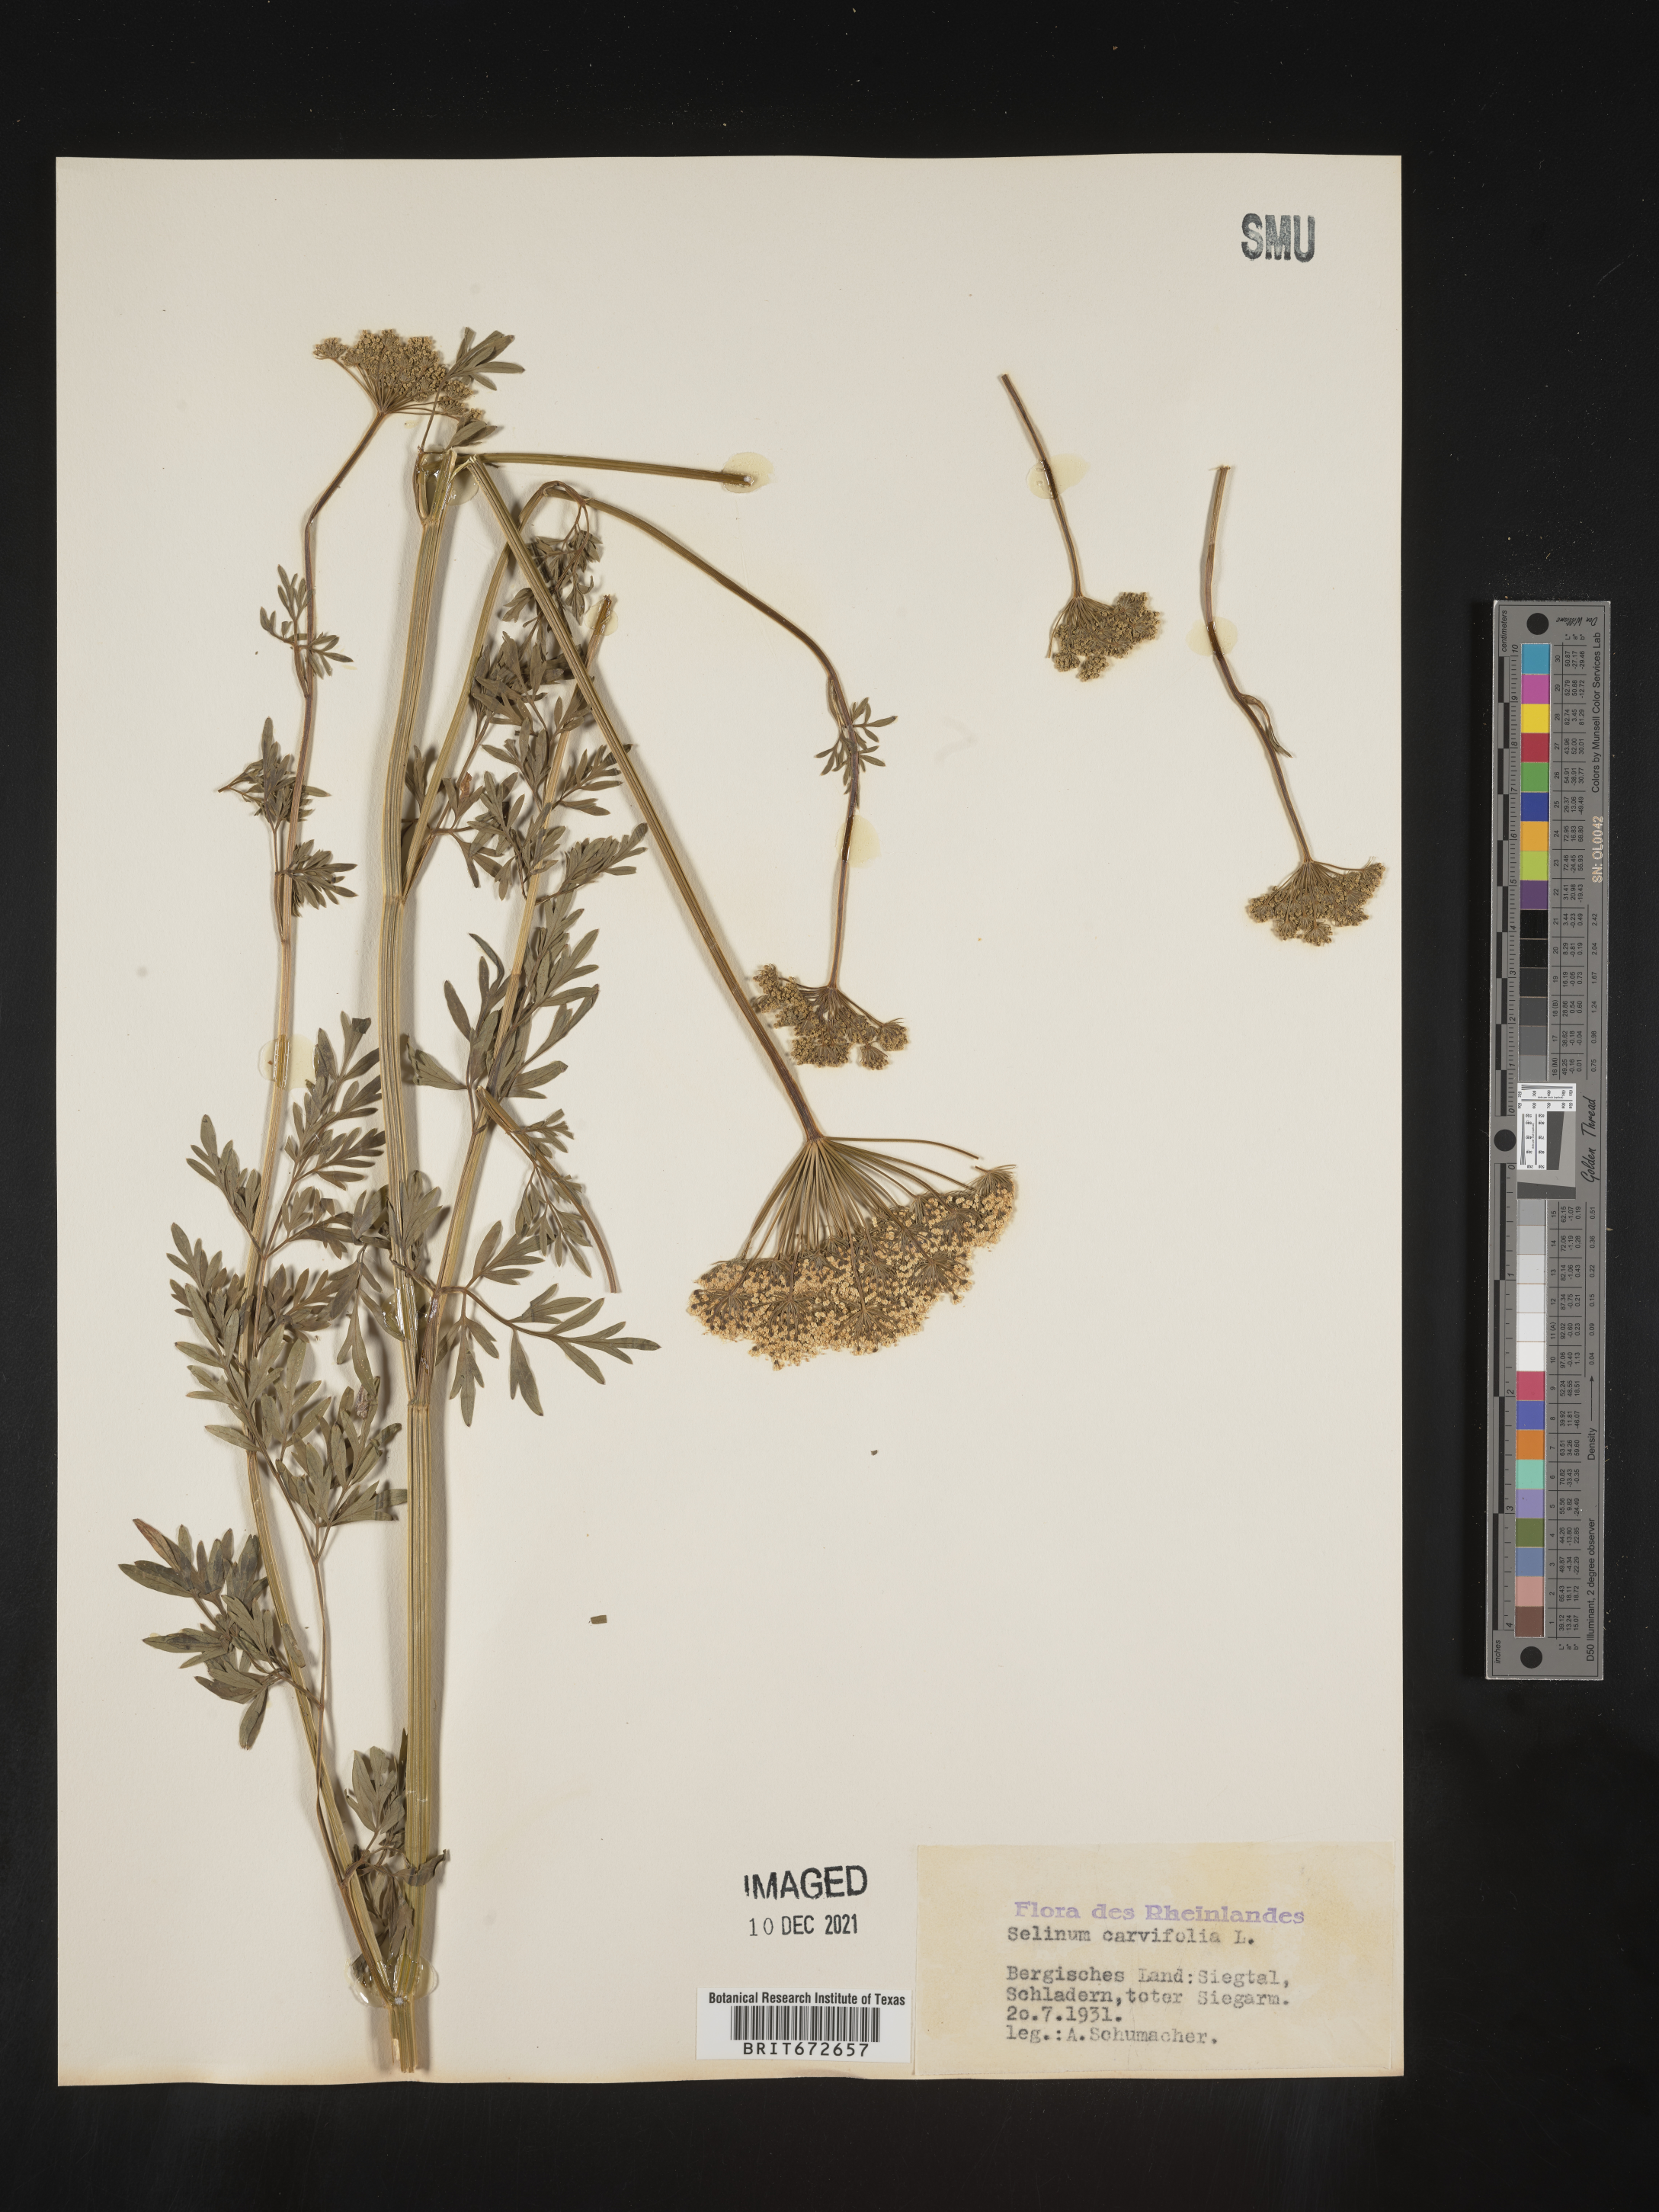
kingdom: Plantae
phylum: Tracheophyta
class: Magnoliopsida
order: Apiales
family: Apiaceae
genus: Selinum
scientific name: Selinum
